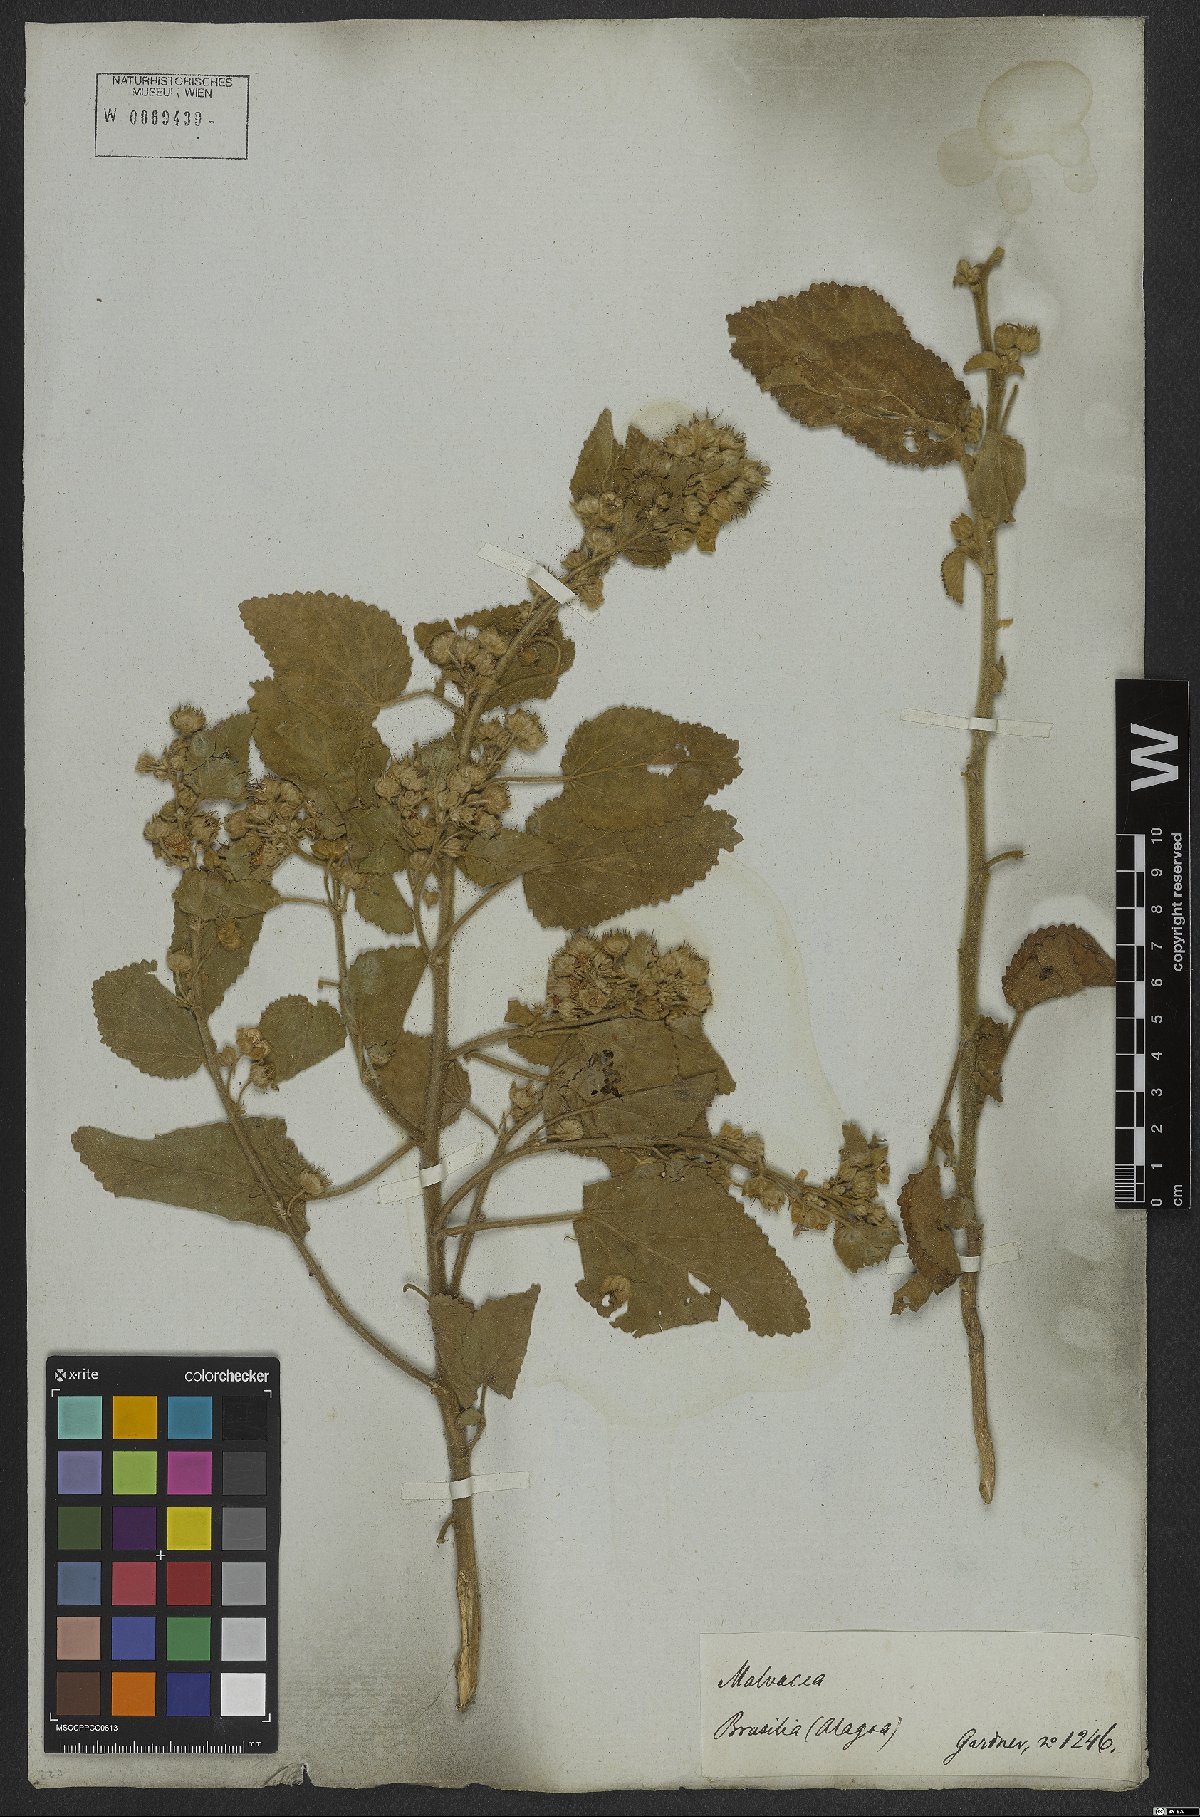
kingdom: Plantae
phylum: Tracheophyta
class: Magnoliopsida
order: Malvales
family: Malvaceae
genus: Sida
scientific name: Sida cordifolia
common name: Ilima
